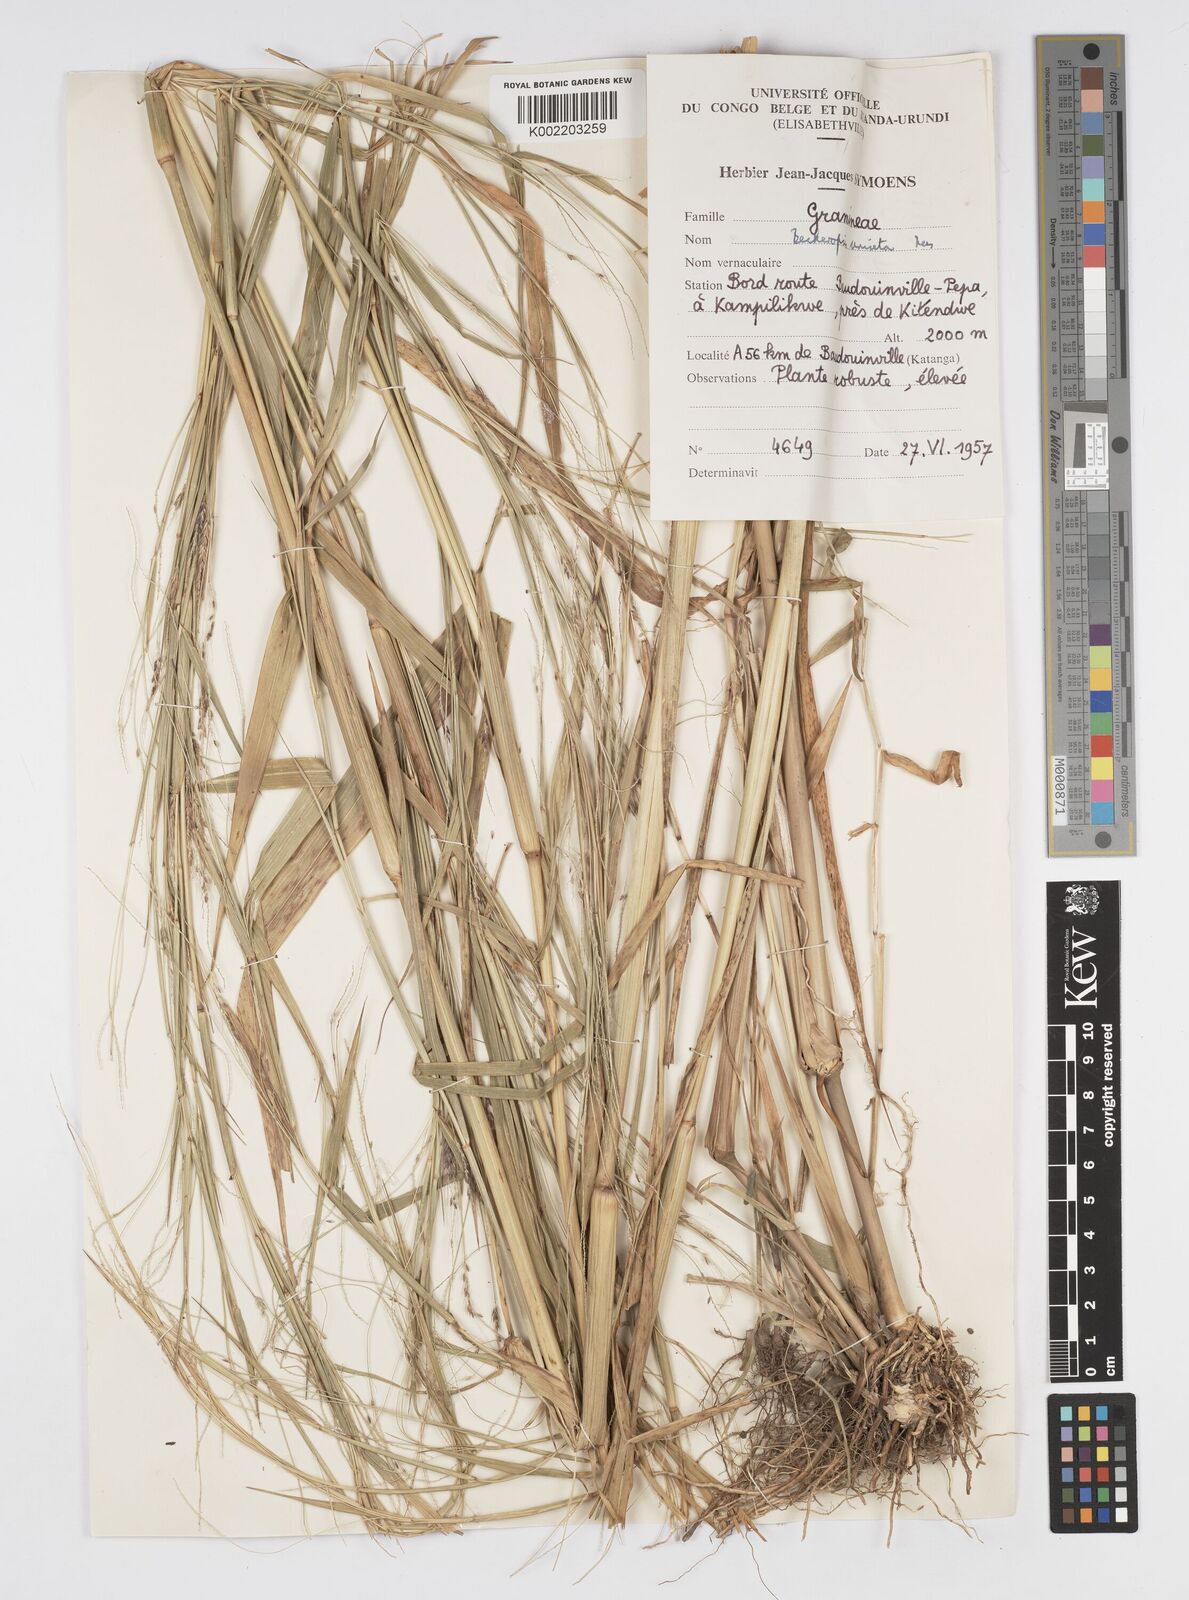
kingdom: Plantae
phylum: Tracheophyta
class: Liliopsida
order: Poales
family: Poaceae
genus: Cenchrus
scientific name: Cenchrus unisetus
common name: Natal grass
